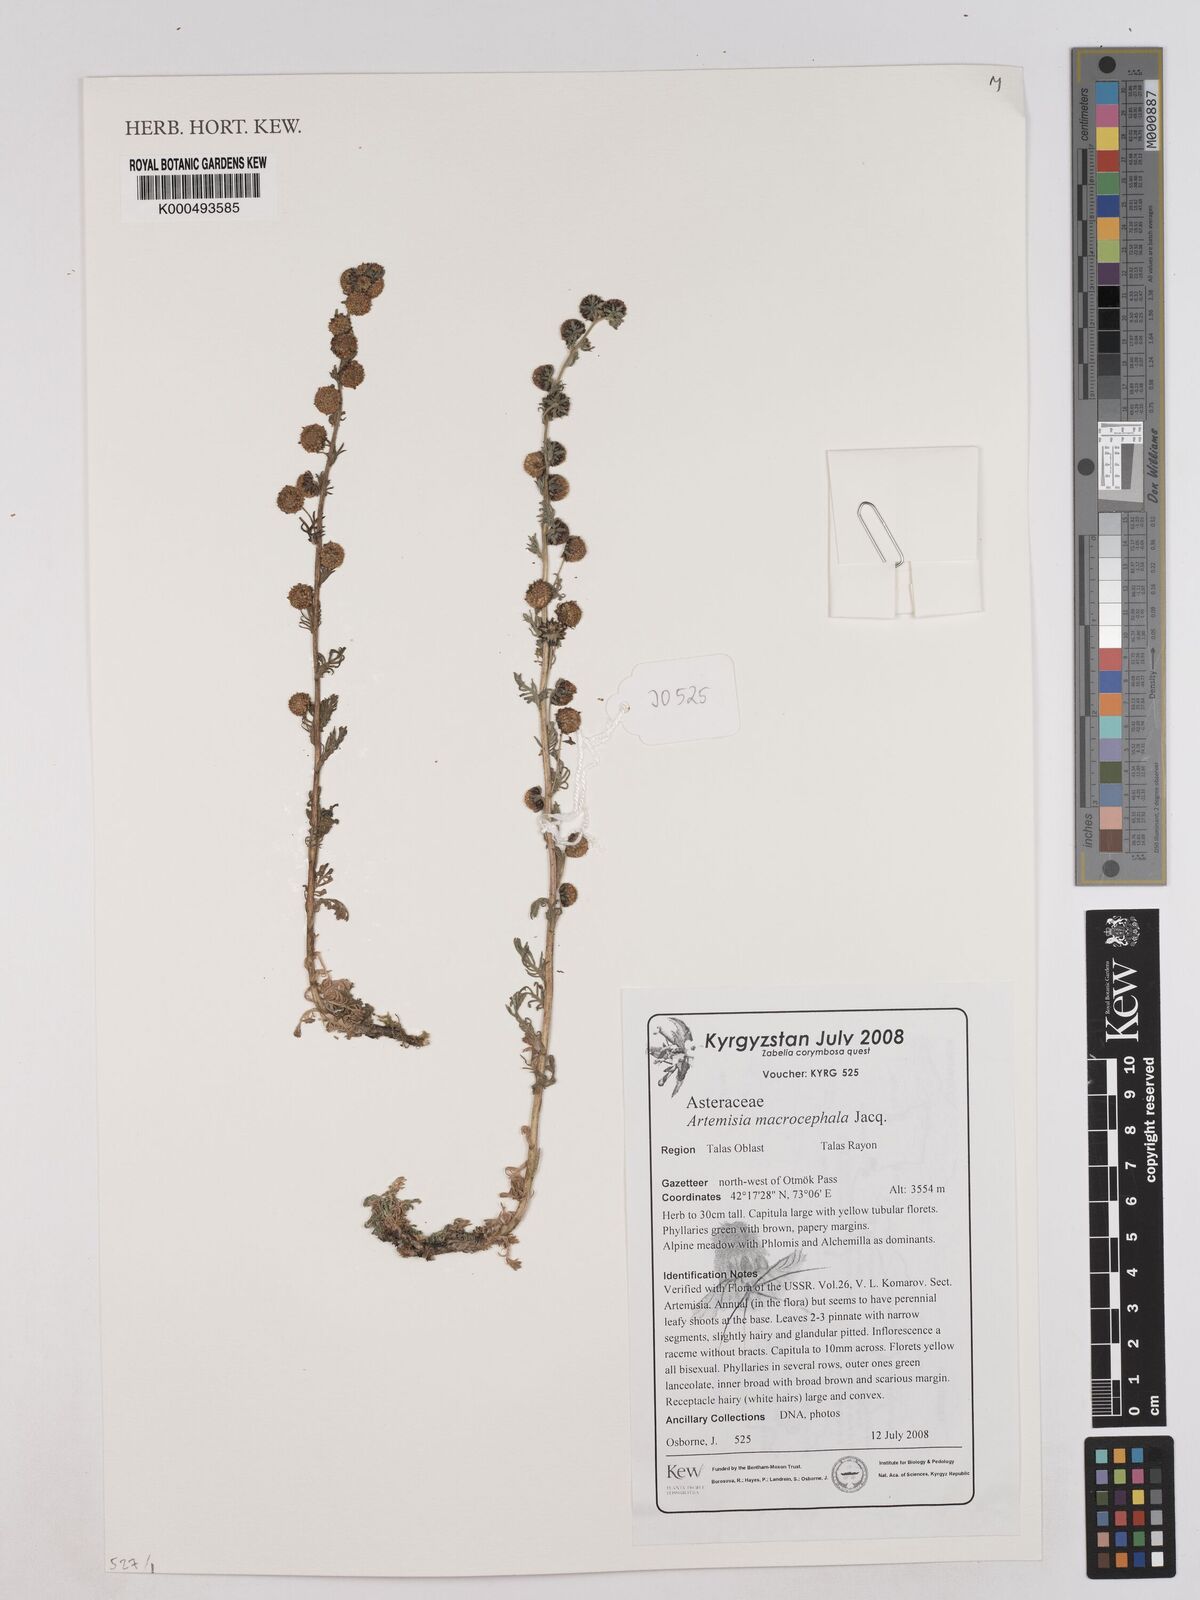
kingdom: Plantae
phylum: Tracheophyta
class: Magnoliopsida
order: Asterales
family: Asteraceae
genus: Artemisia
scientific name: Artemisia macrocephala
